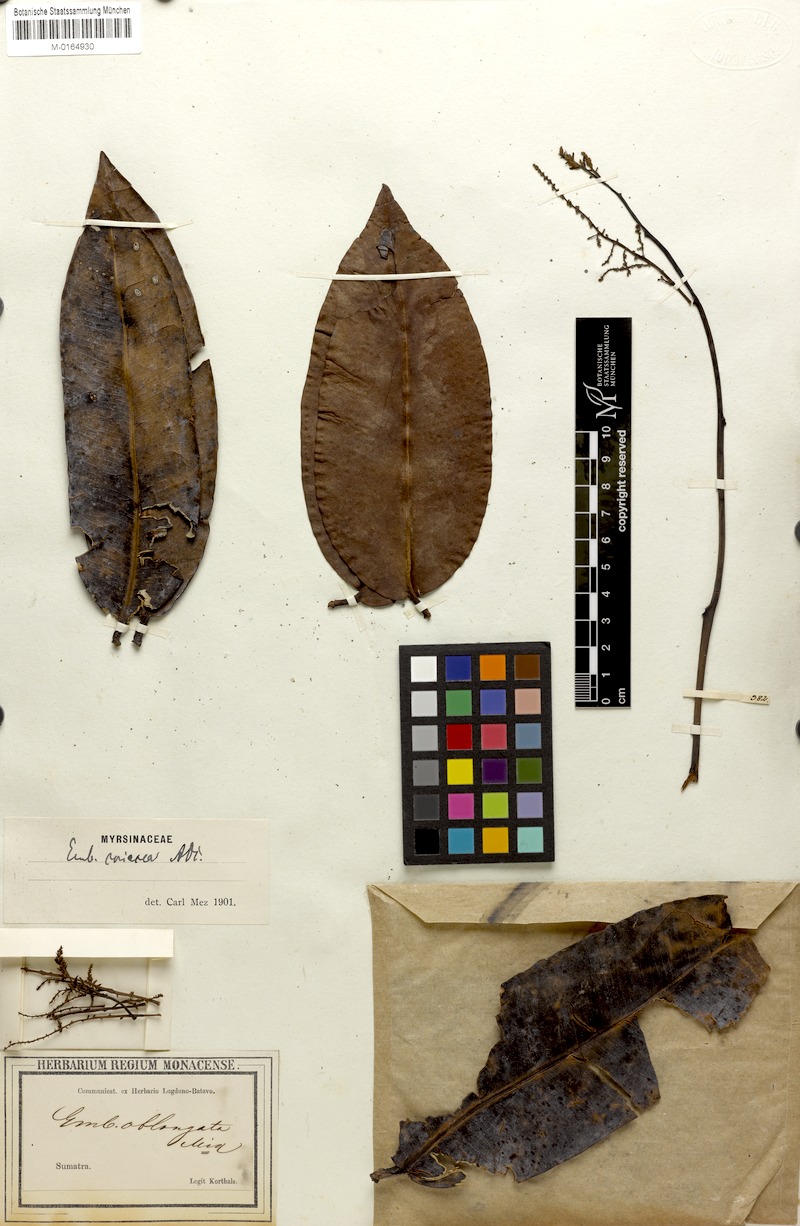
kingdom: Plantae
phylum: Tracheophyta
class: Magnoliopsida
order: Ericales
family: Primulaceae
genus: Embelia
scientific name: Embelia coriacea
